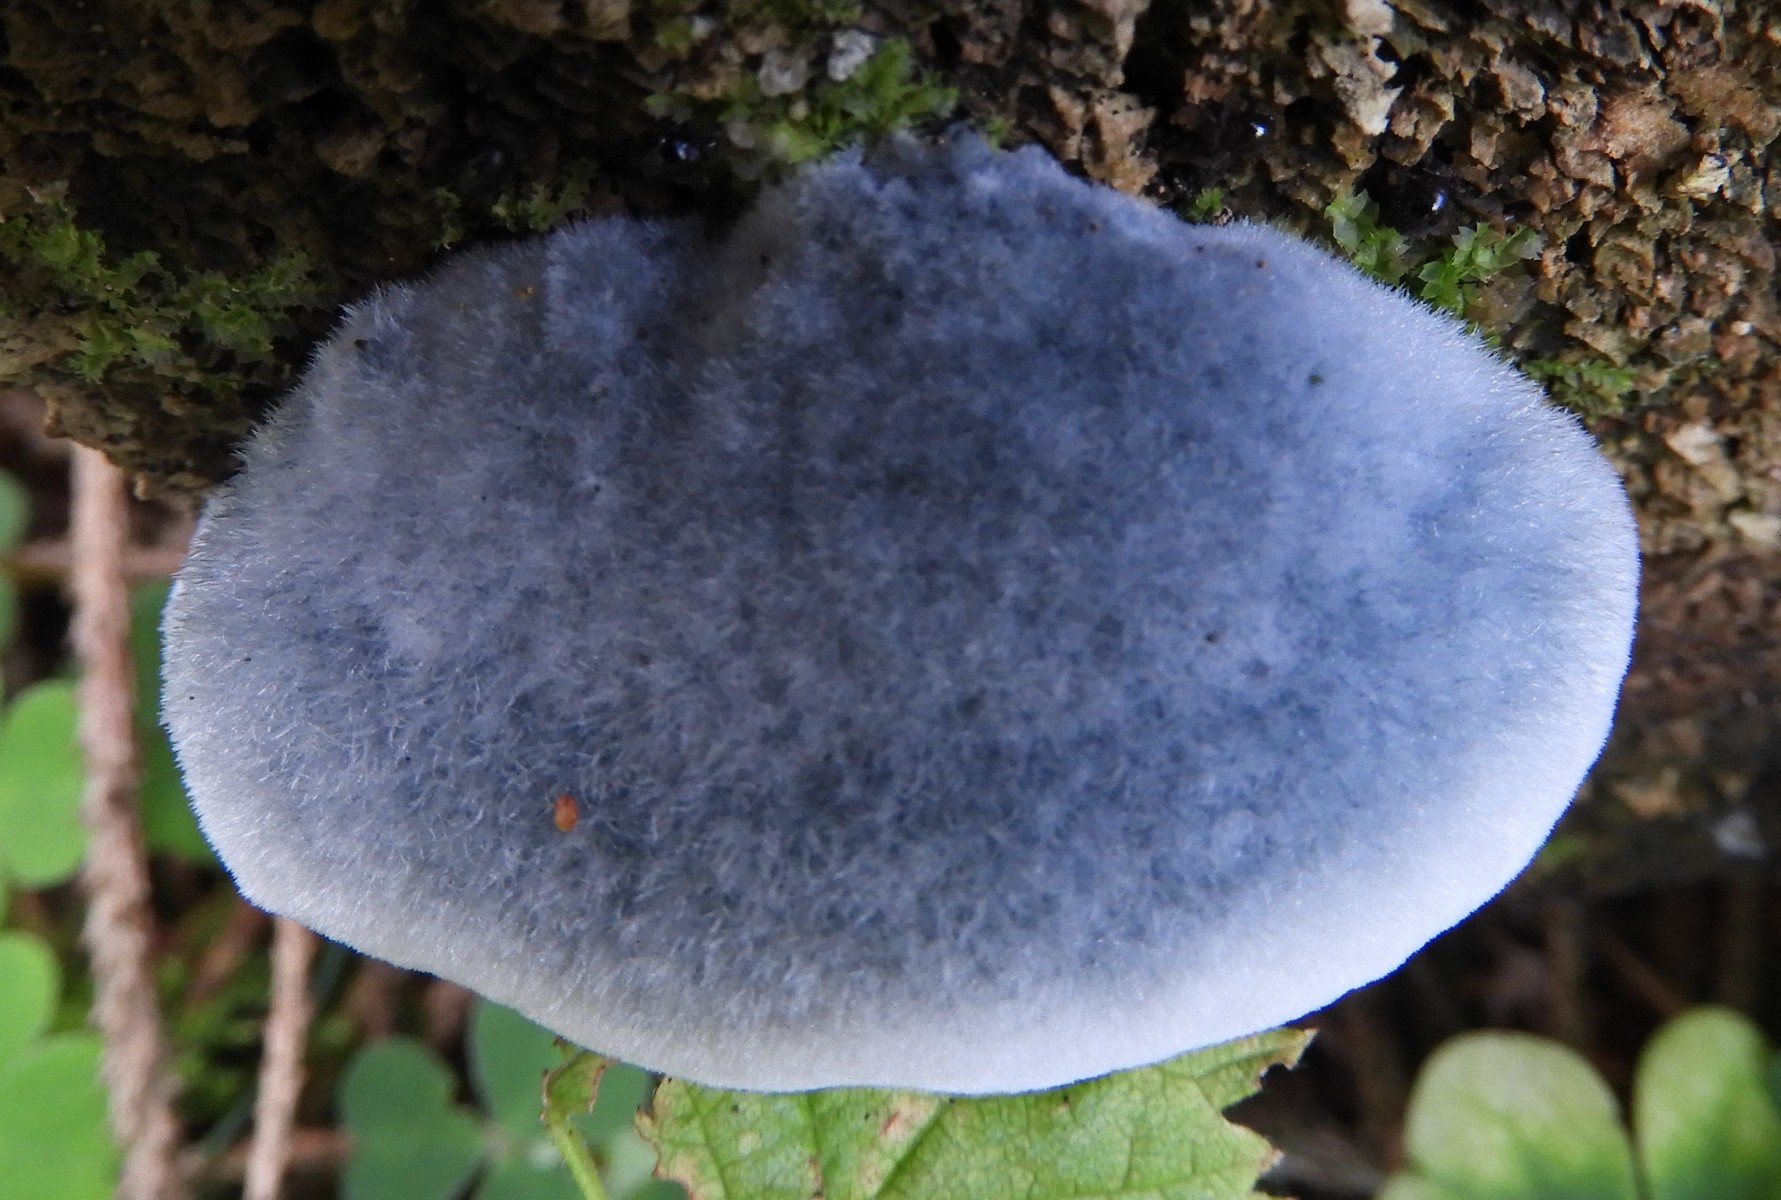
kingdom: Fungi
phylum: Basidiomycota
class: Agaricomycetes
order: Polyporales
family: Polyporaceae
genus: Cyanosporus
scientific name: Cyanosporus caesius
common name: blålig kødporesvamp
